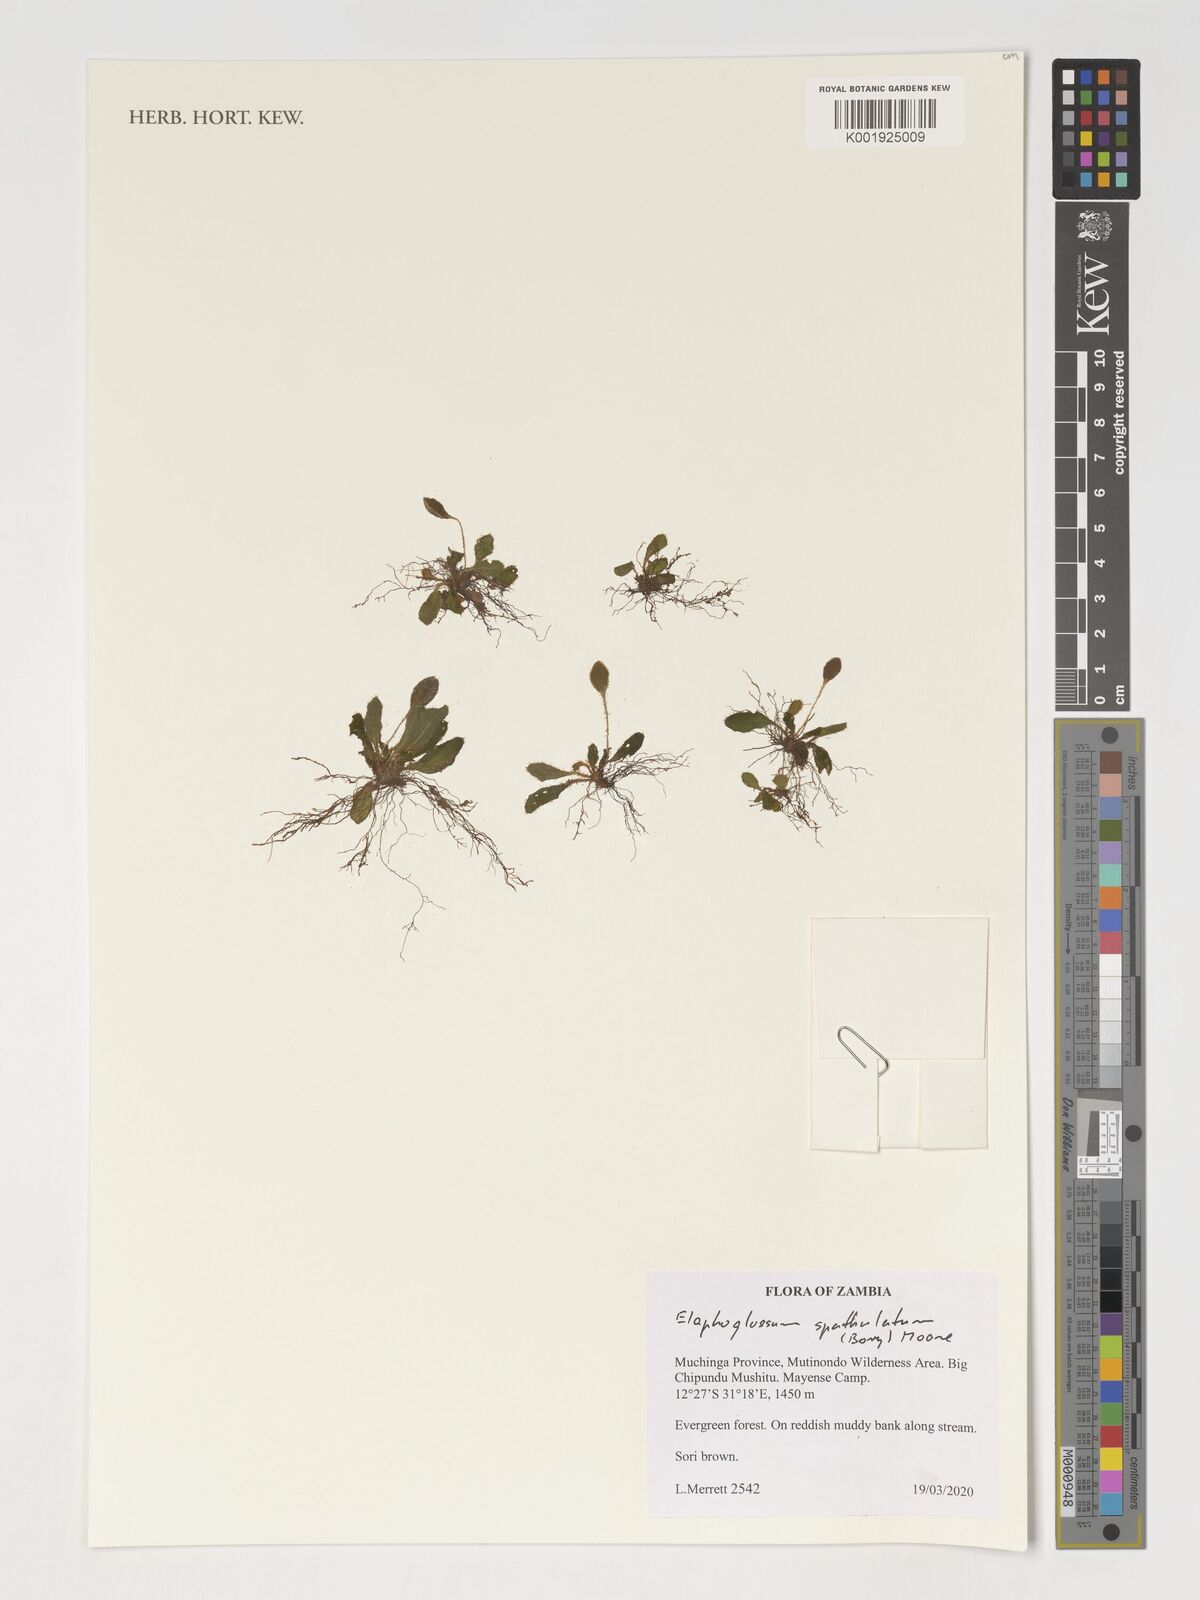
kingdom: Plantae
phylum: Tracheophyta
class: Polypodiopsida
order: Polypodiales
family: Dryopteridaceae
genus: Elaphoglossum
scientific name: Elaphoglossum spatulatum
